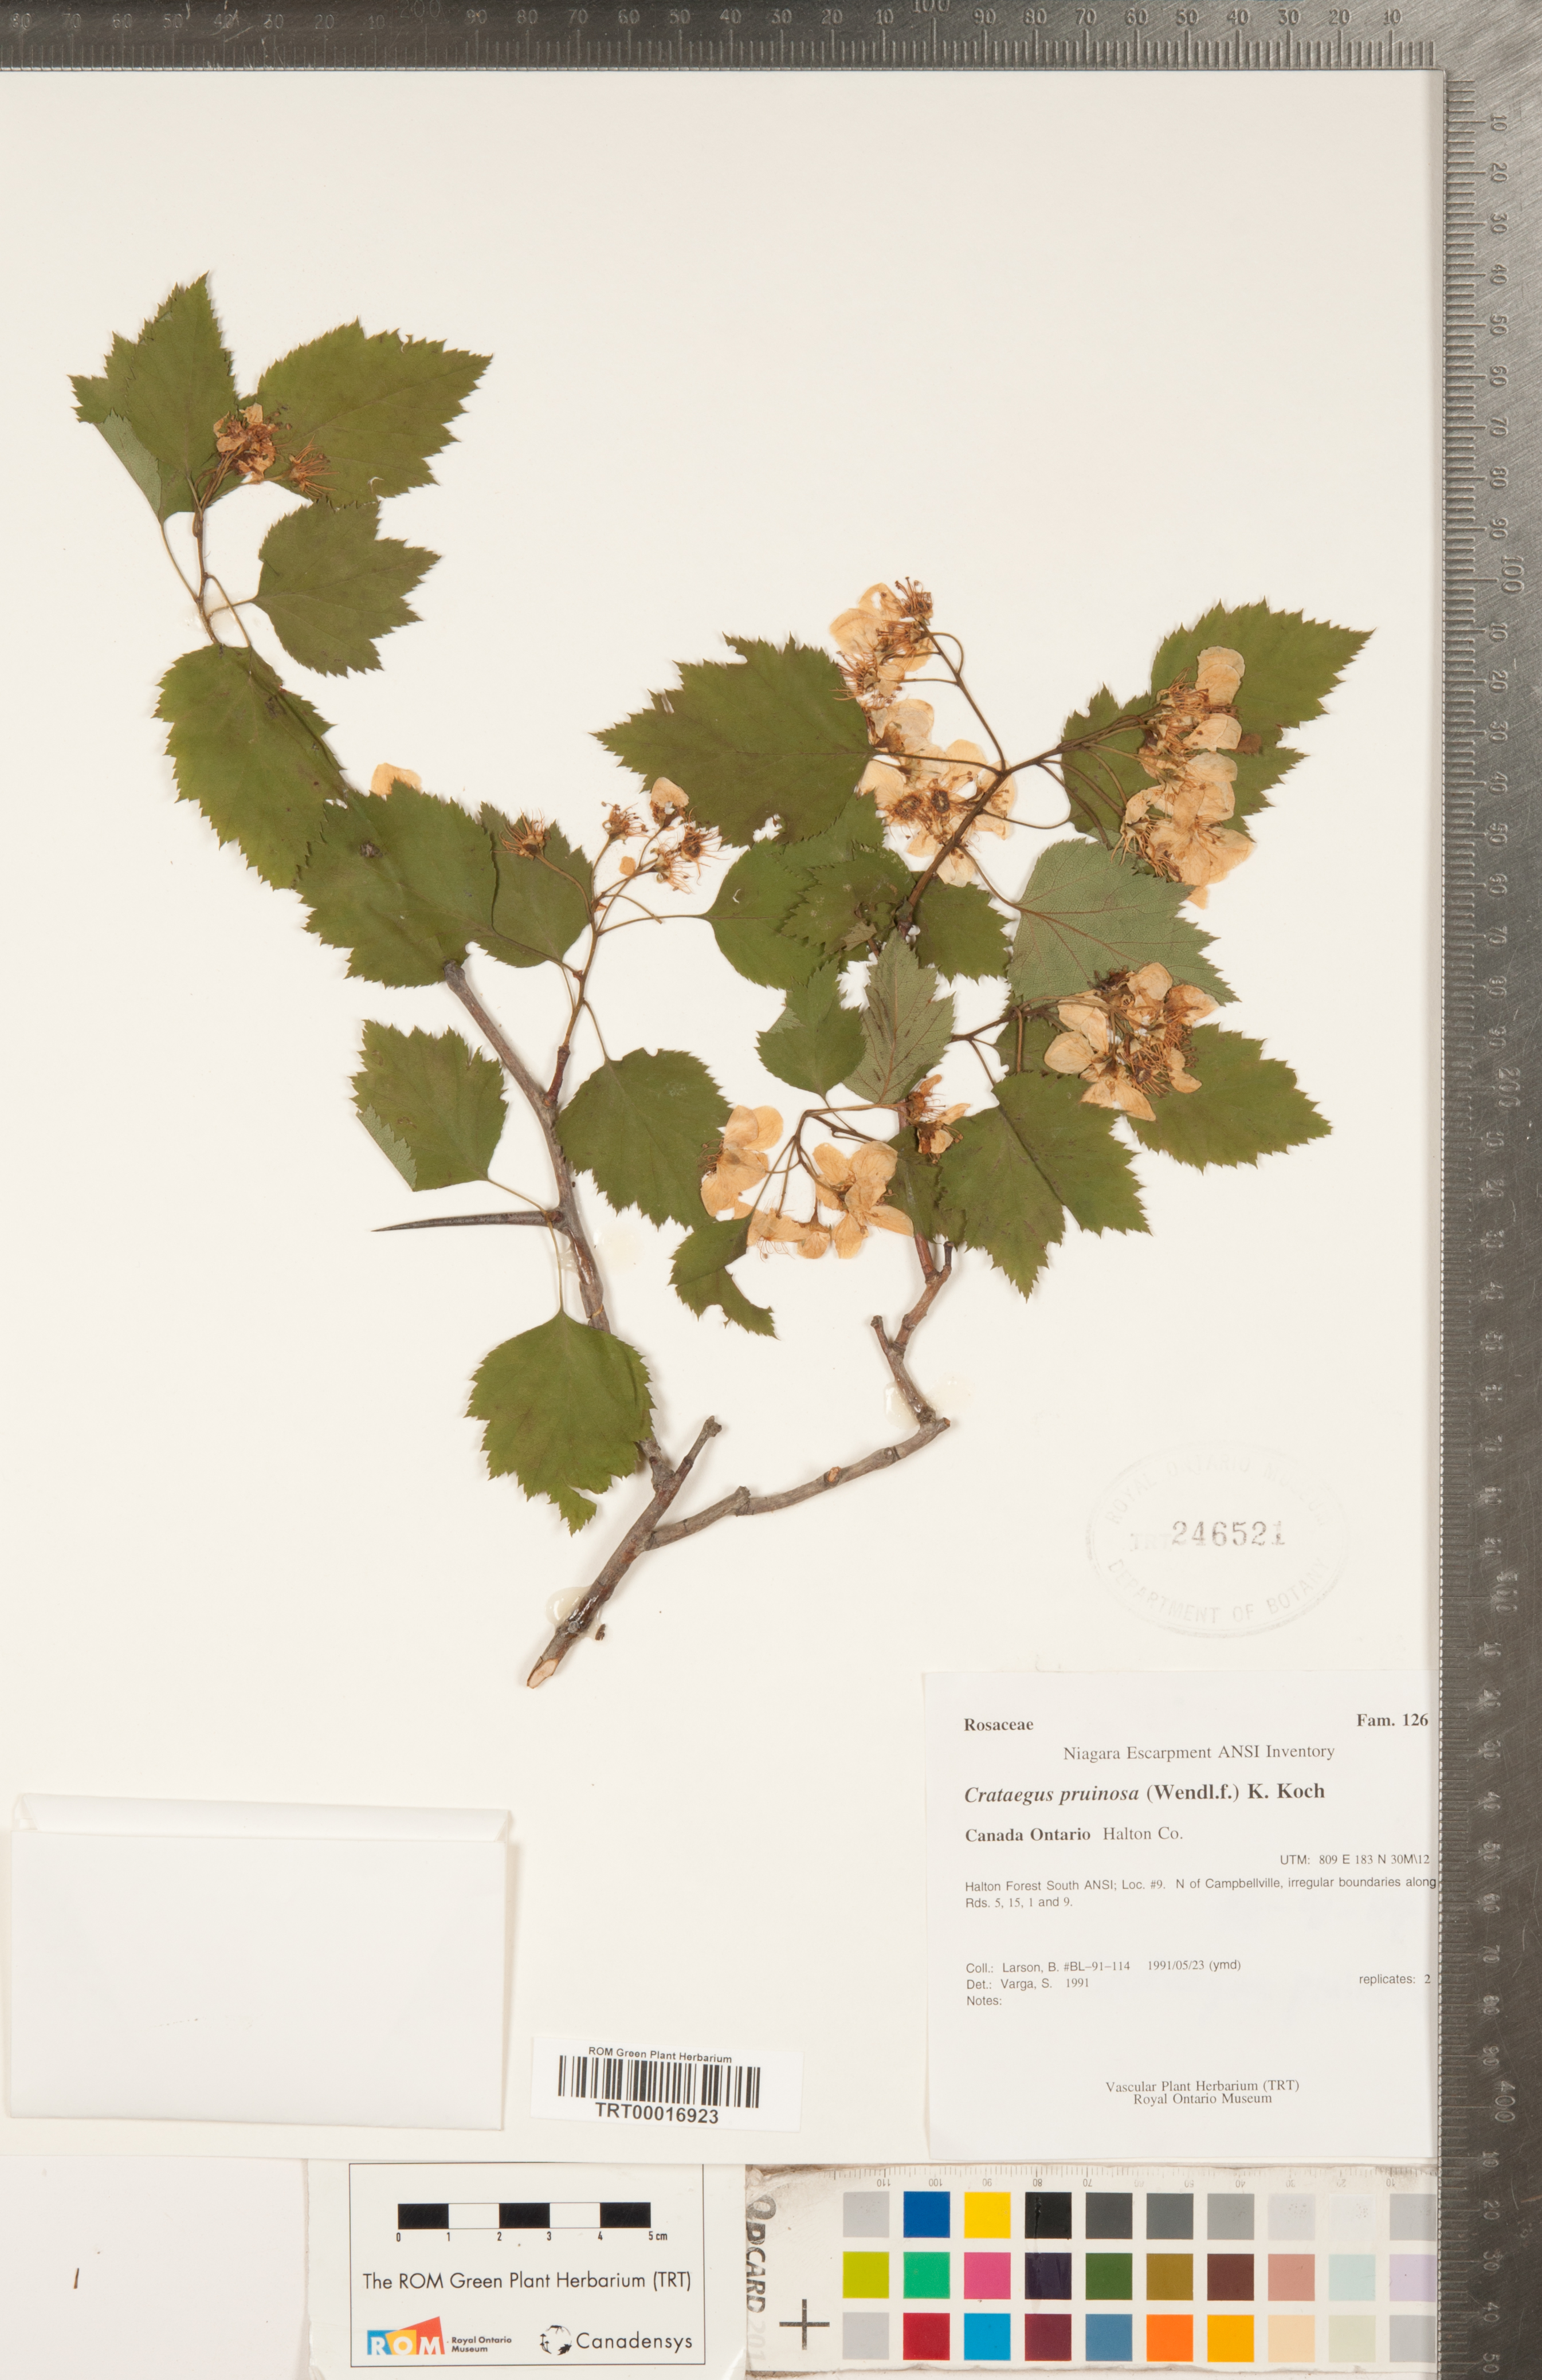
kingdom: Plantae
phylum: Tracheophyta
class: Magnoliopsida
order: Rosales
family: Rosaceae
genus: Crataegus
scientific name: Crataegus pruinosa
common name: Waxy-fruit hawthorn
